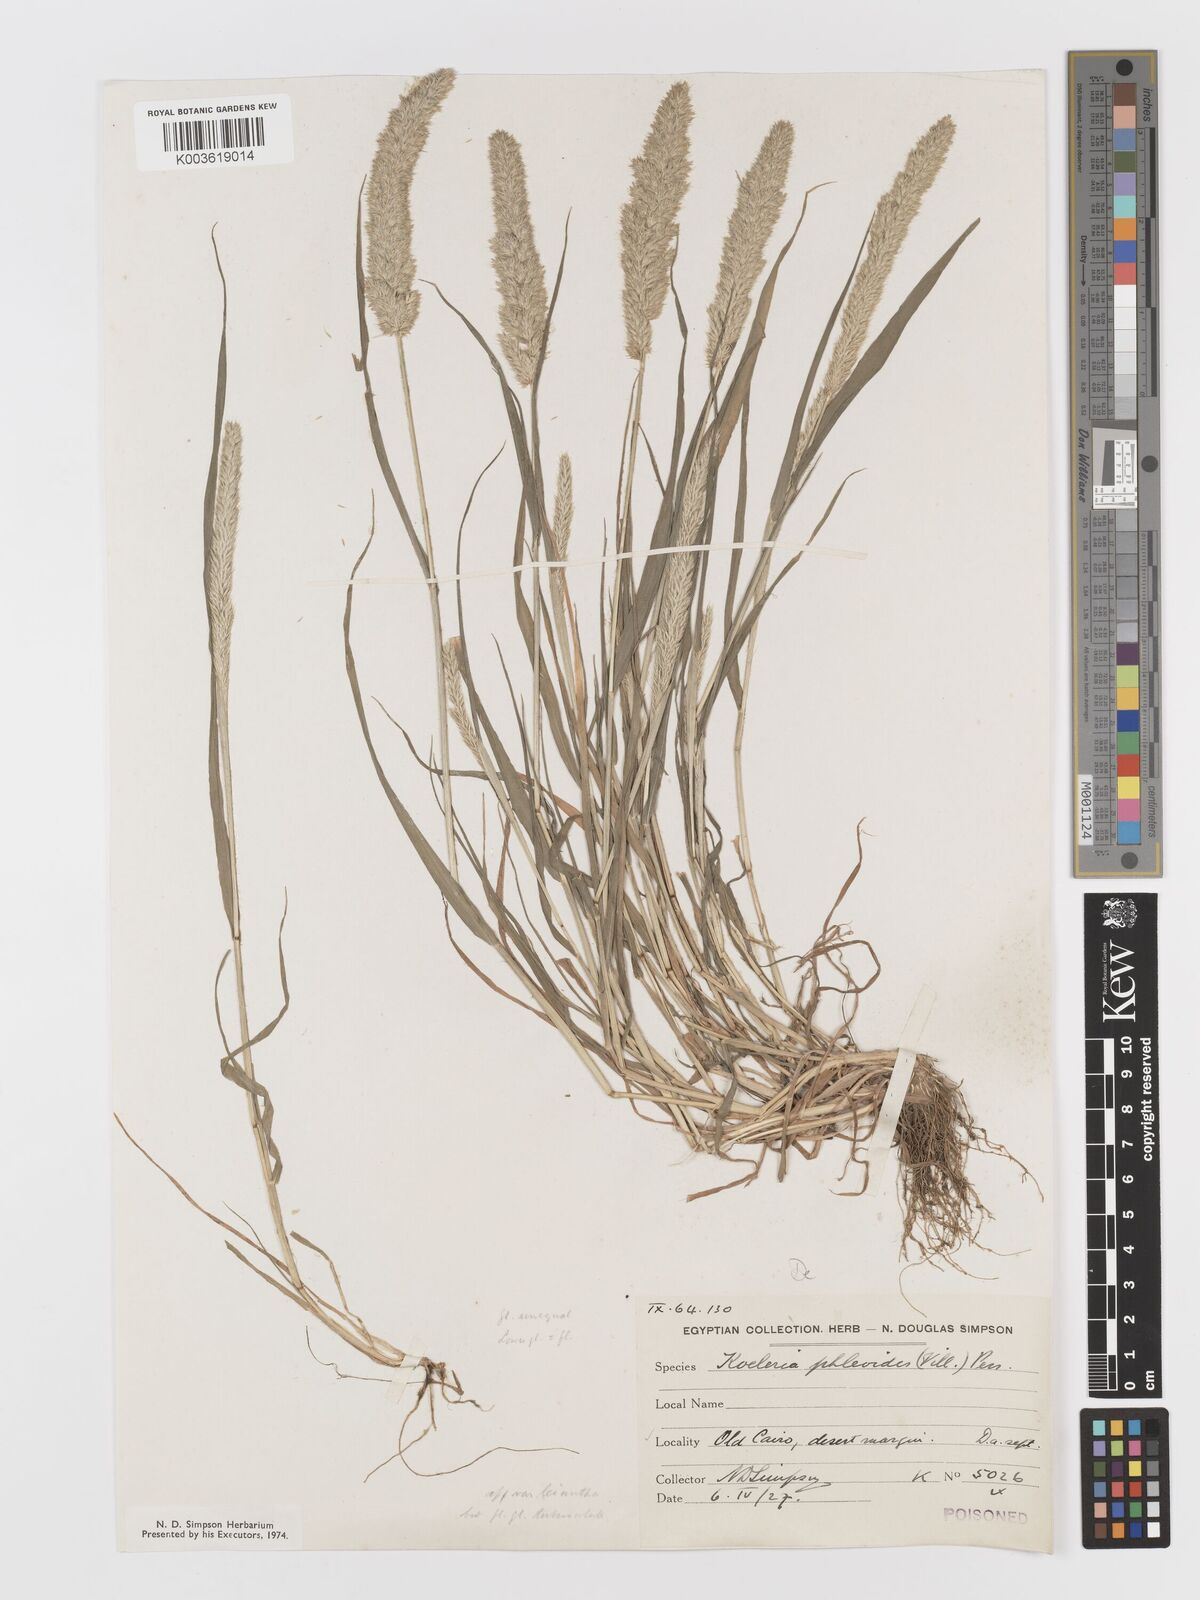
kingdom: Plantae
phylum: Tracheophyta
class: Liliopsida
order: Poales
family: Poaceae
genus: Rostraria
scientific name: Rostraria cristata
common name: Mediterranean hair-grass
